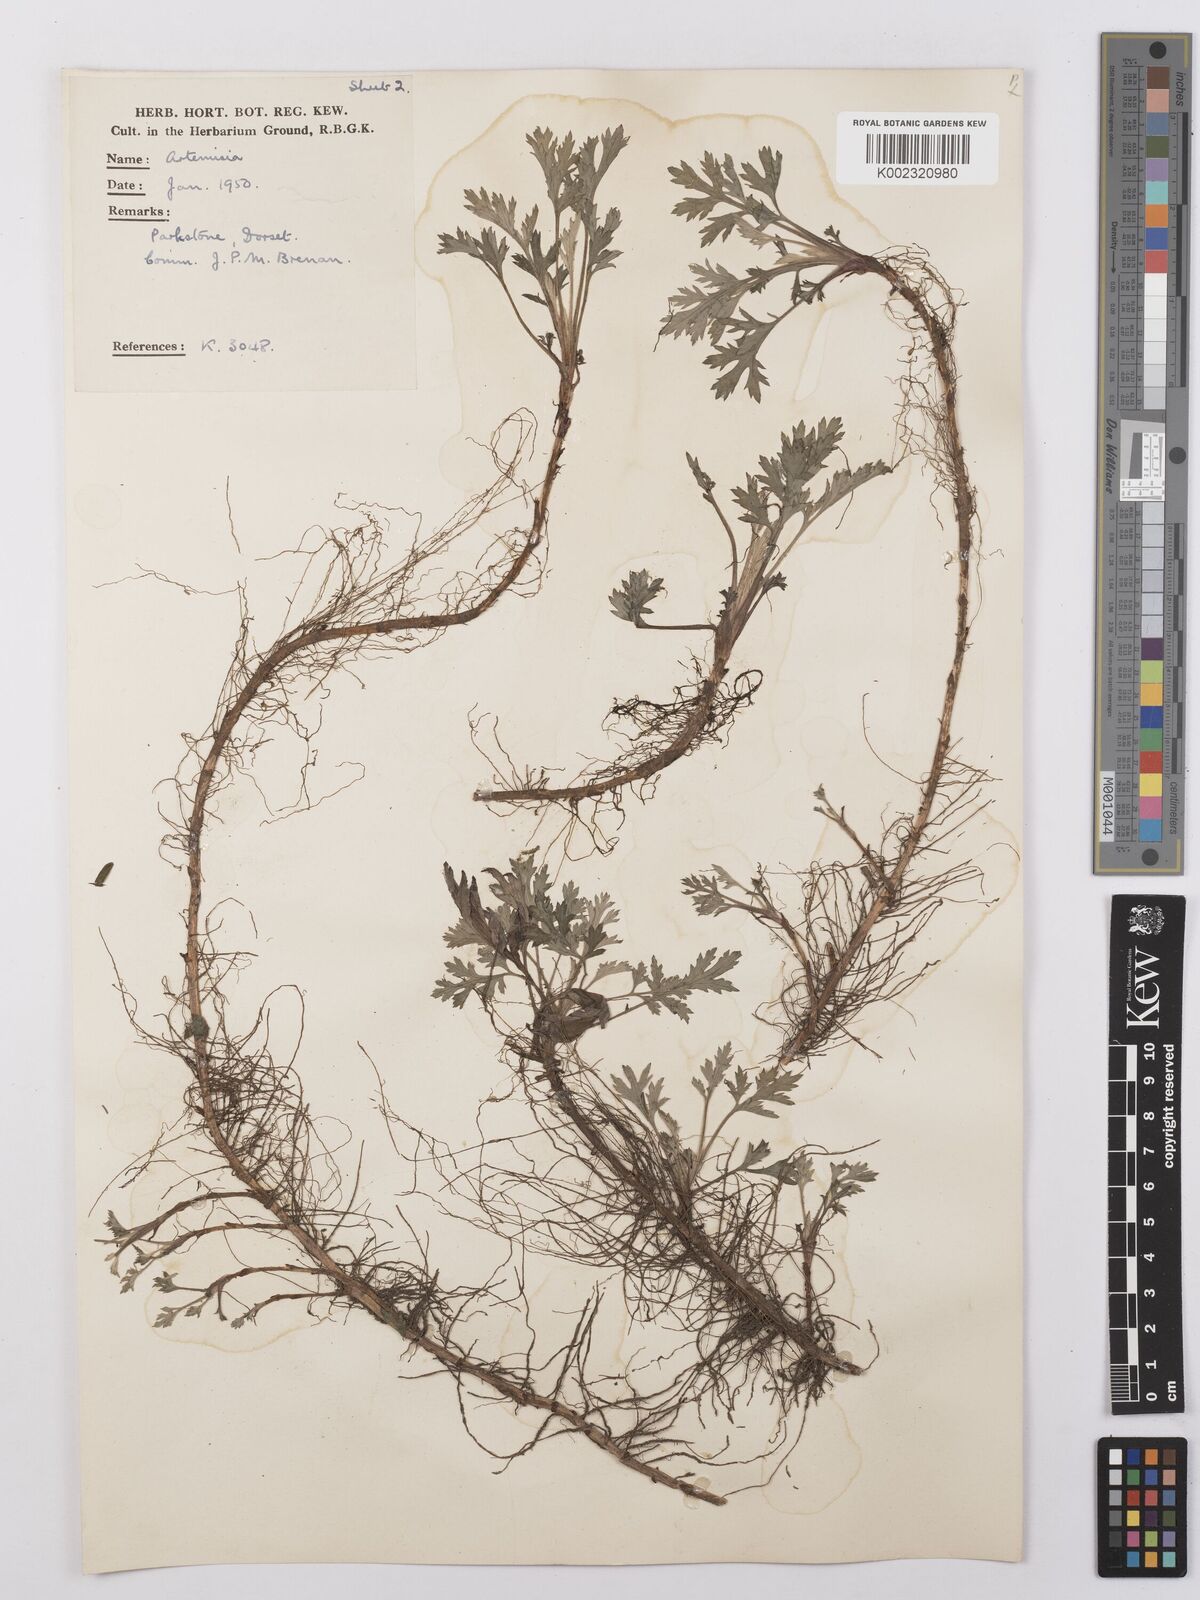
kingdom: Plantae
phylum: Tracheophyta
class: Magnoliopsida
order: Asterales
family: Asteraceae
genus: Artemisia
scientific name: Artemisia
